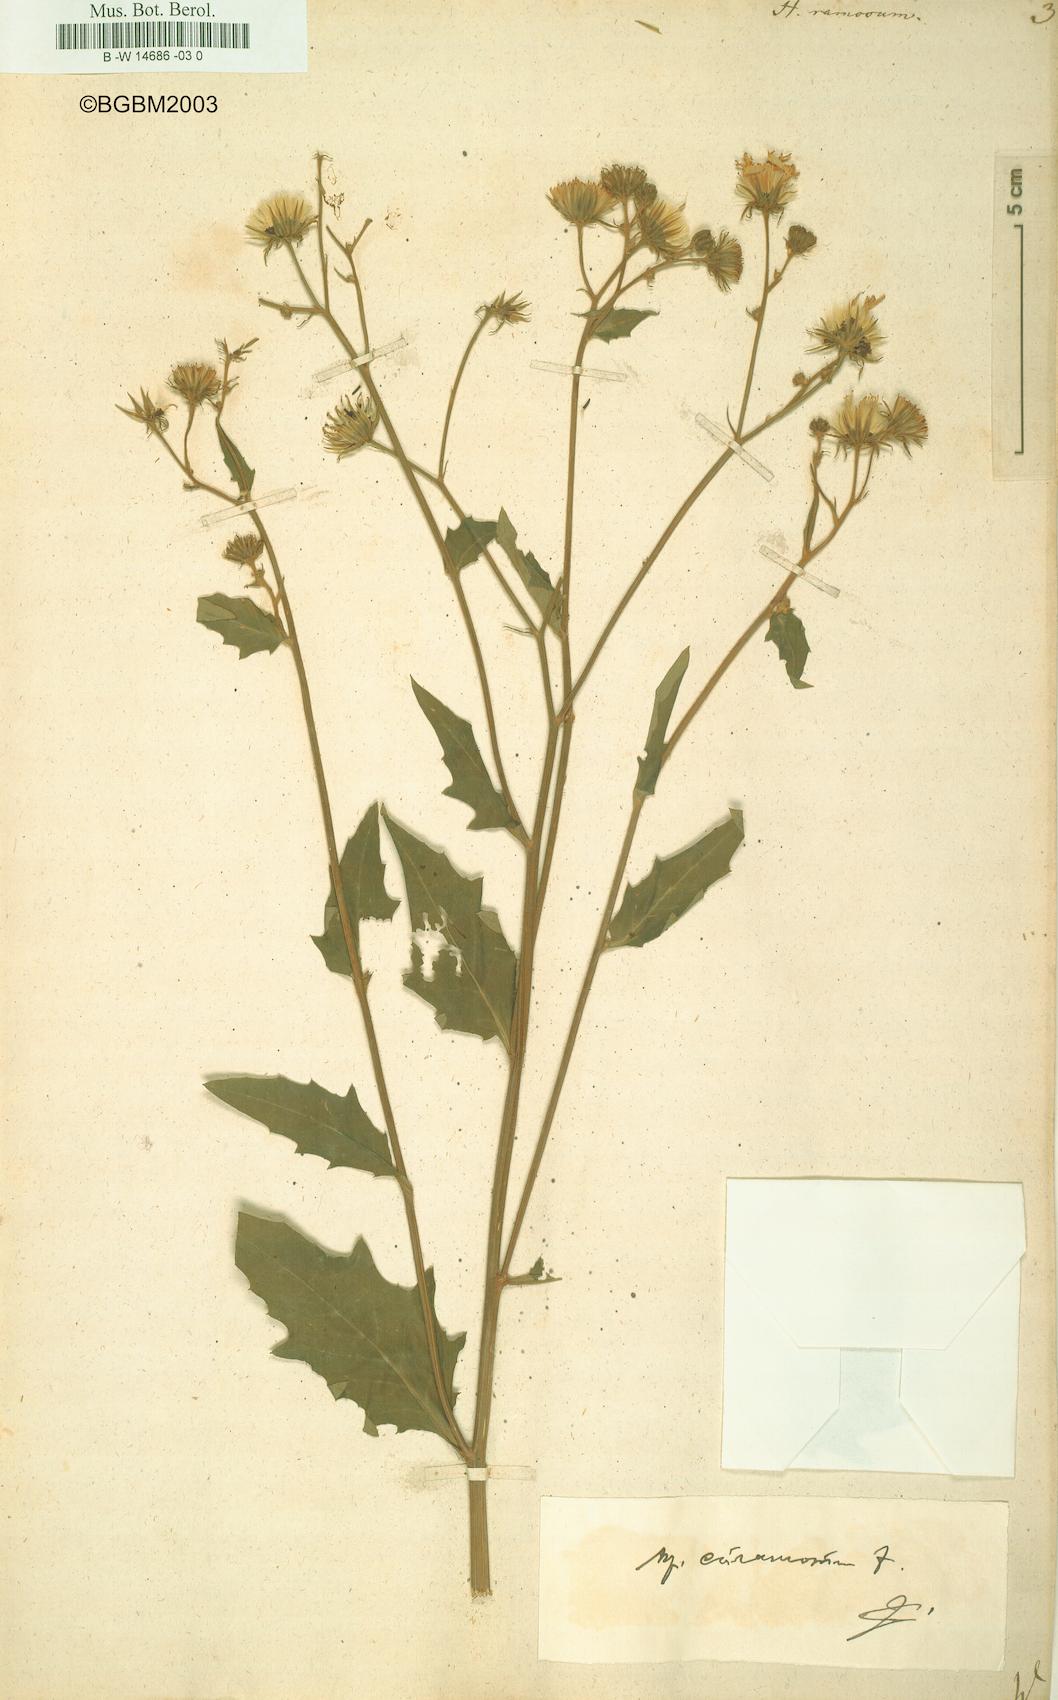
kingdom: Plantae
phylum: Tracheophyta
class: Magnoliopsida
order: Asterales
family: Asteraceae
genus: Hieracium
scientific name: Hieracium ramosum
